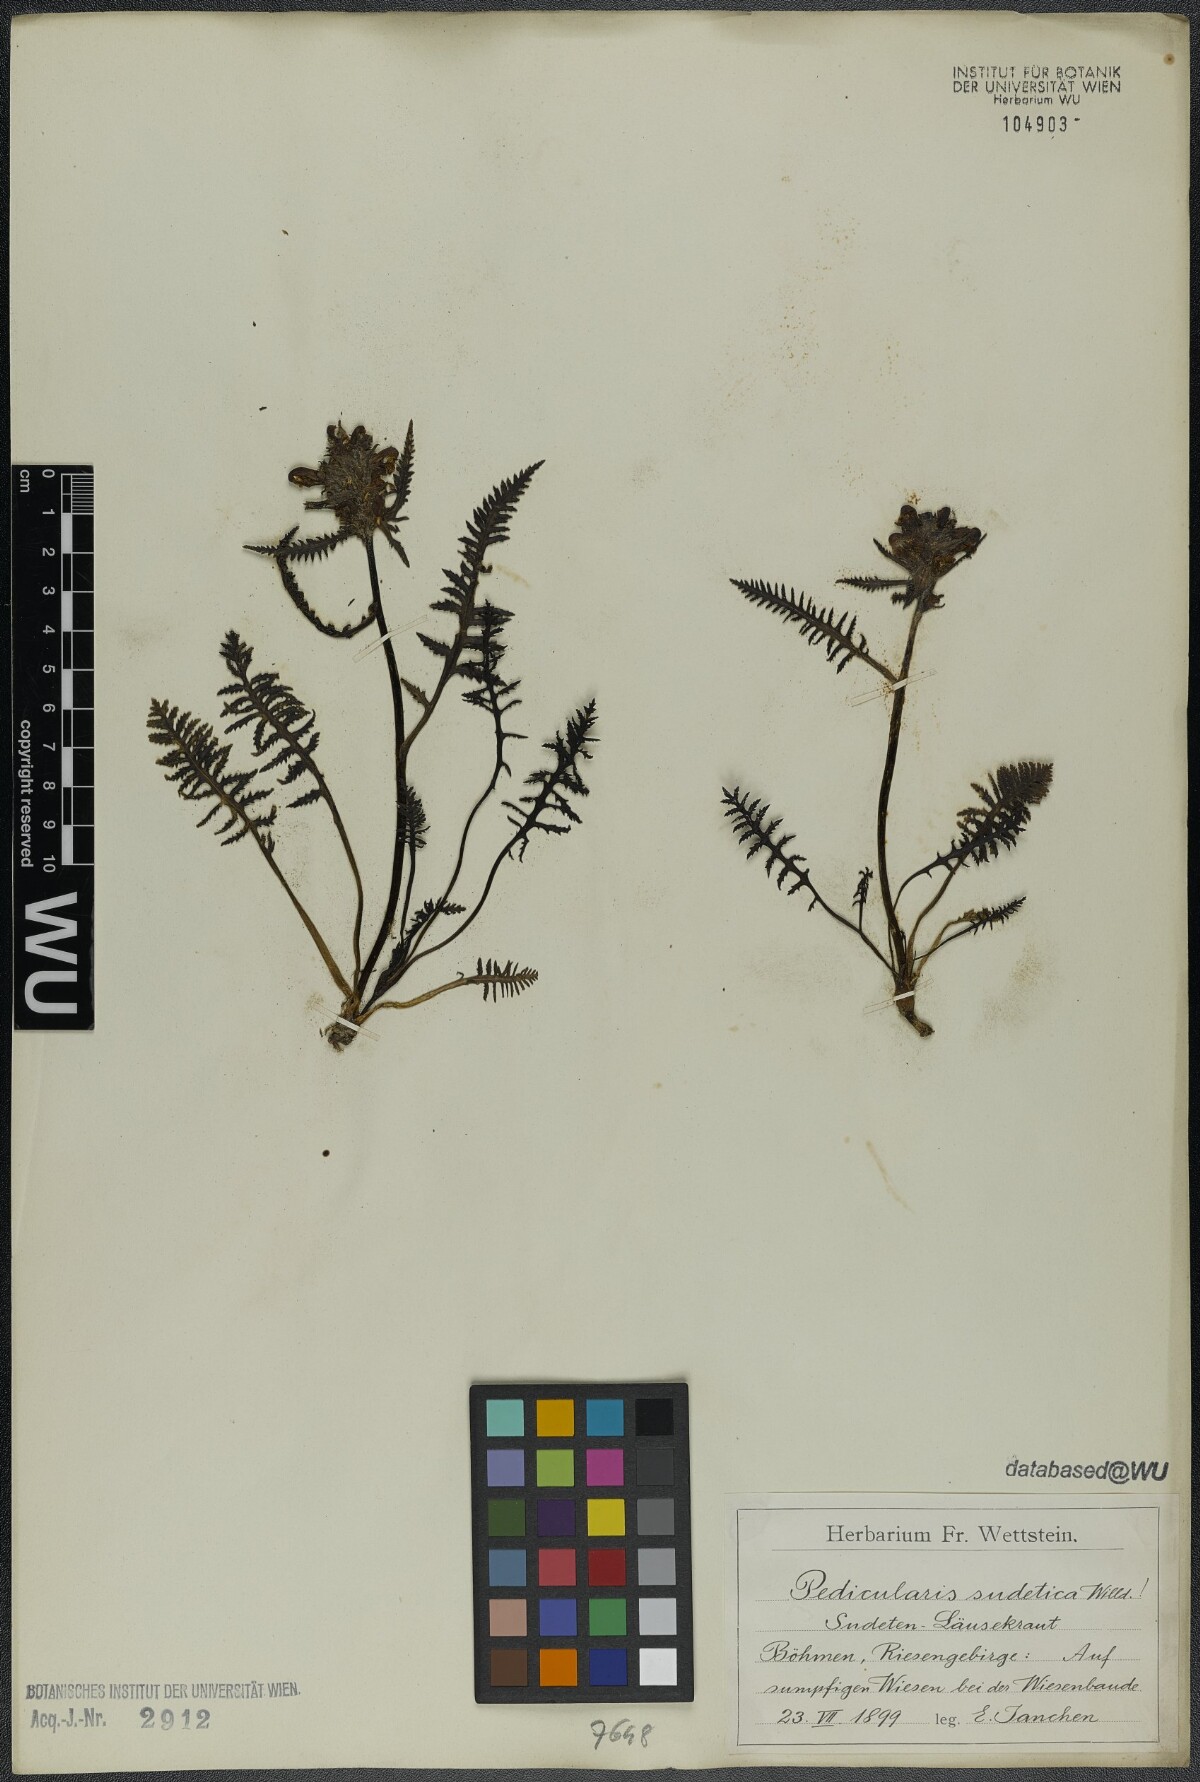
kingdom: Plantae
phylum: Tracheophyta
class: Magnoliopsida
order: Lamiales
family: Orobanchaceae
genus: Pedicularis
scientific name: Pedicularis sudetica
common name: Sudeten lousewort
